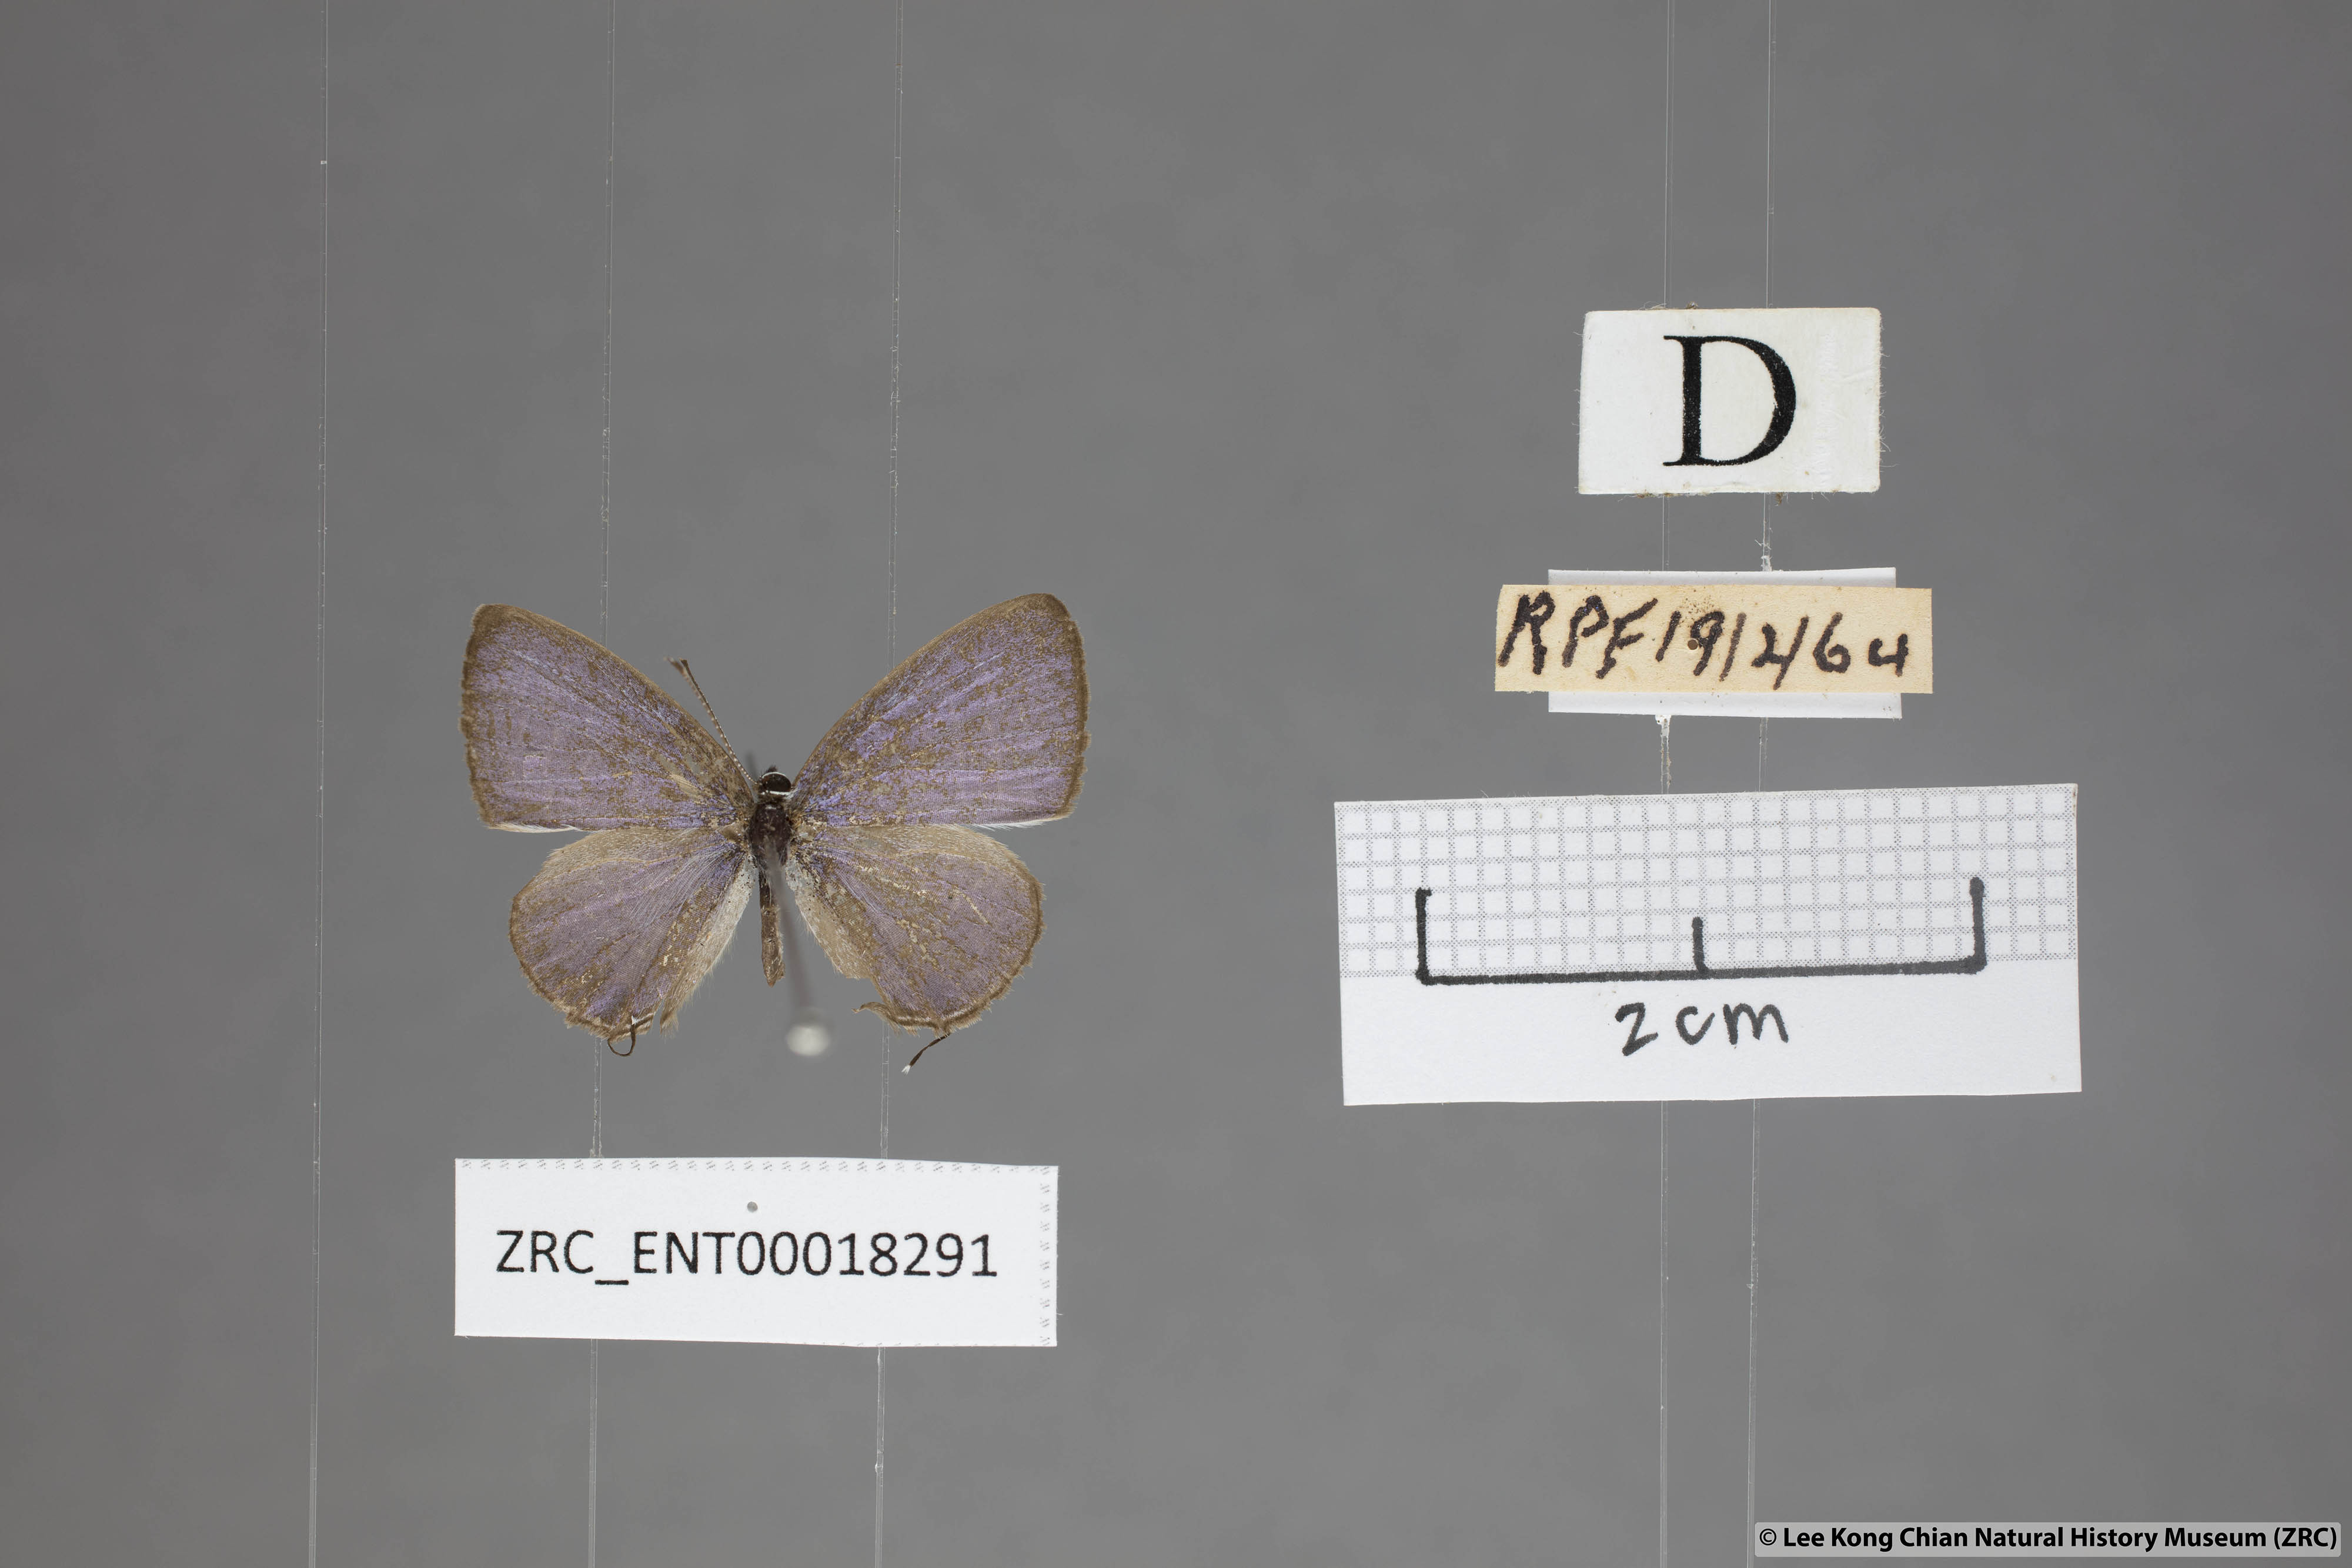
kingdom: Animalia
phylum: Arthropoda
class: Insecta
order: Lepidoptera
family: Lycaenidae
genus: Prosotas
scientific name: Prosotas aluta
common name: Barred lineblue
